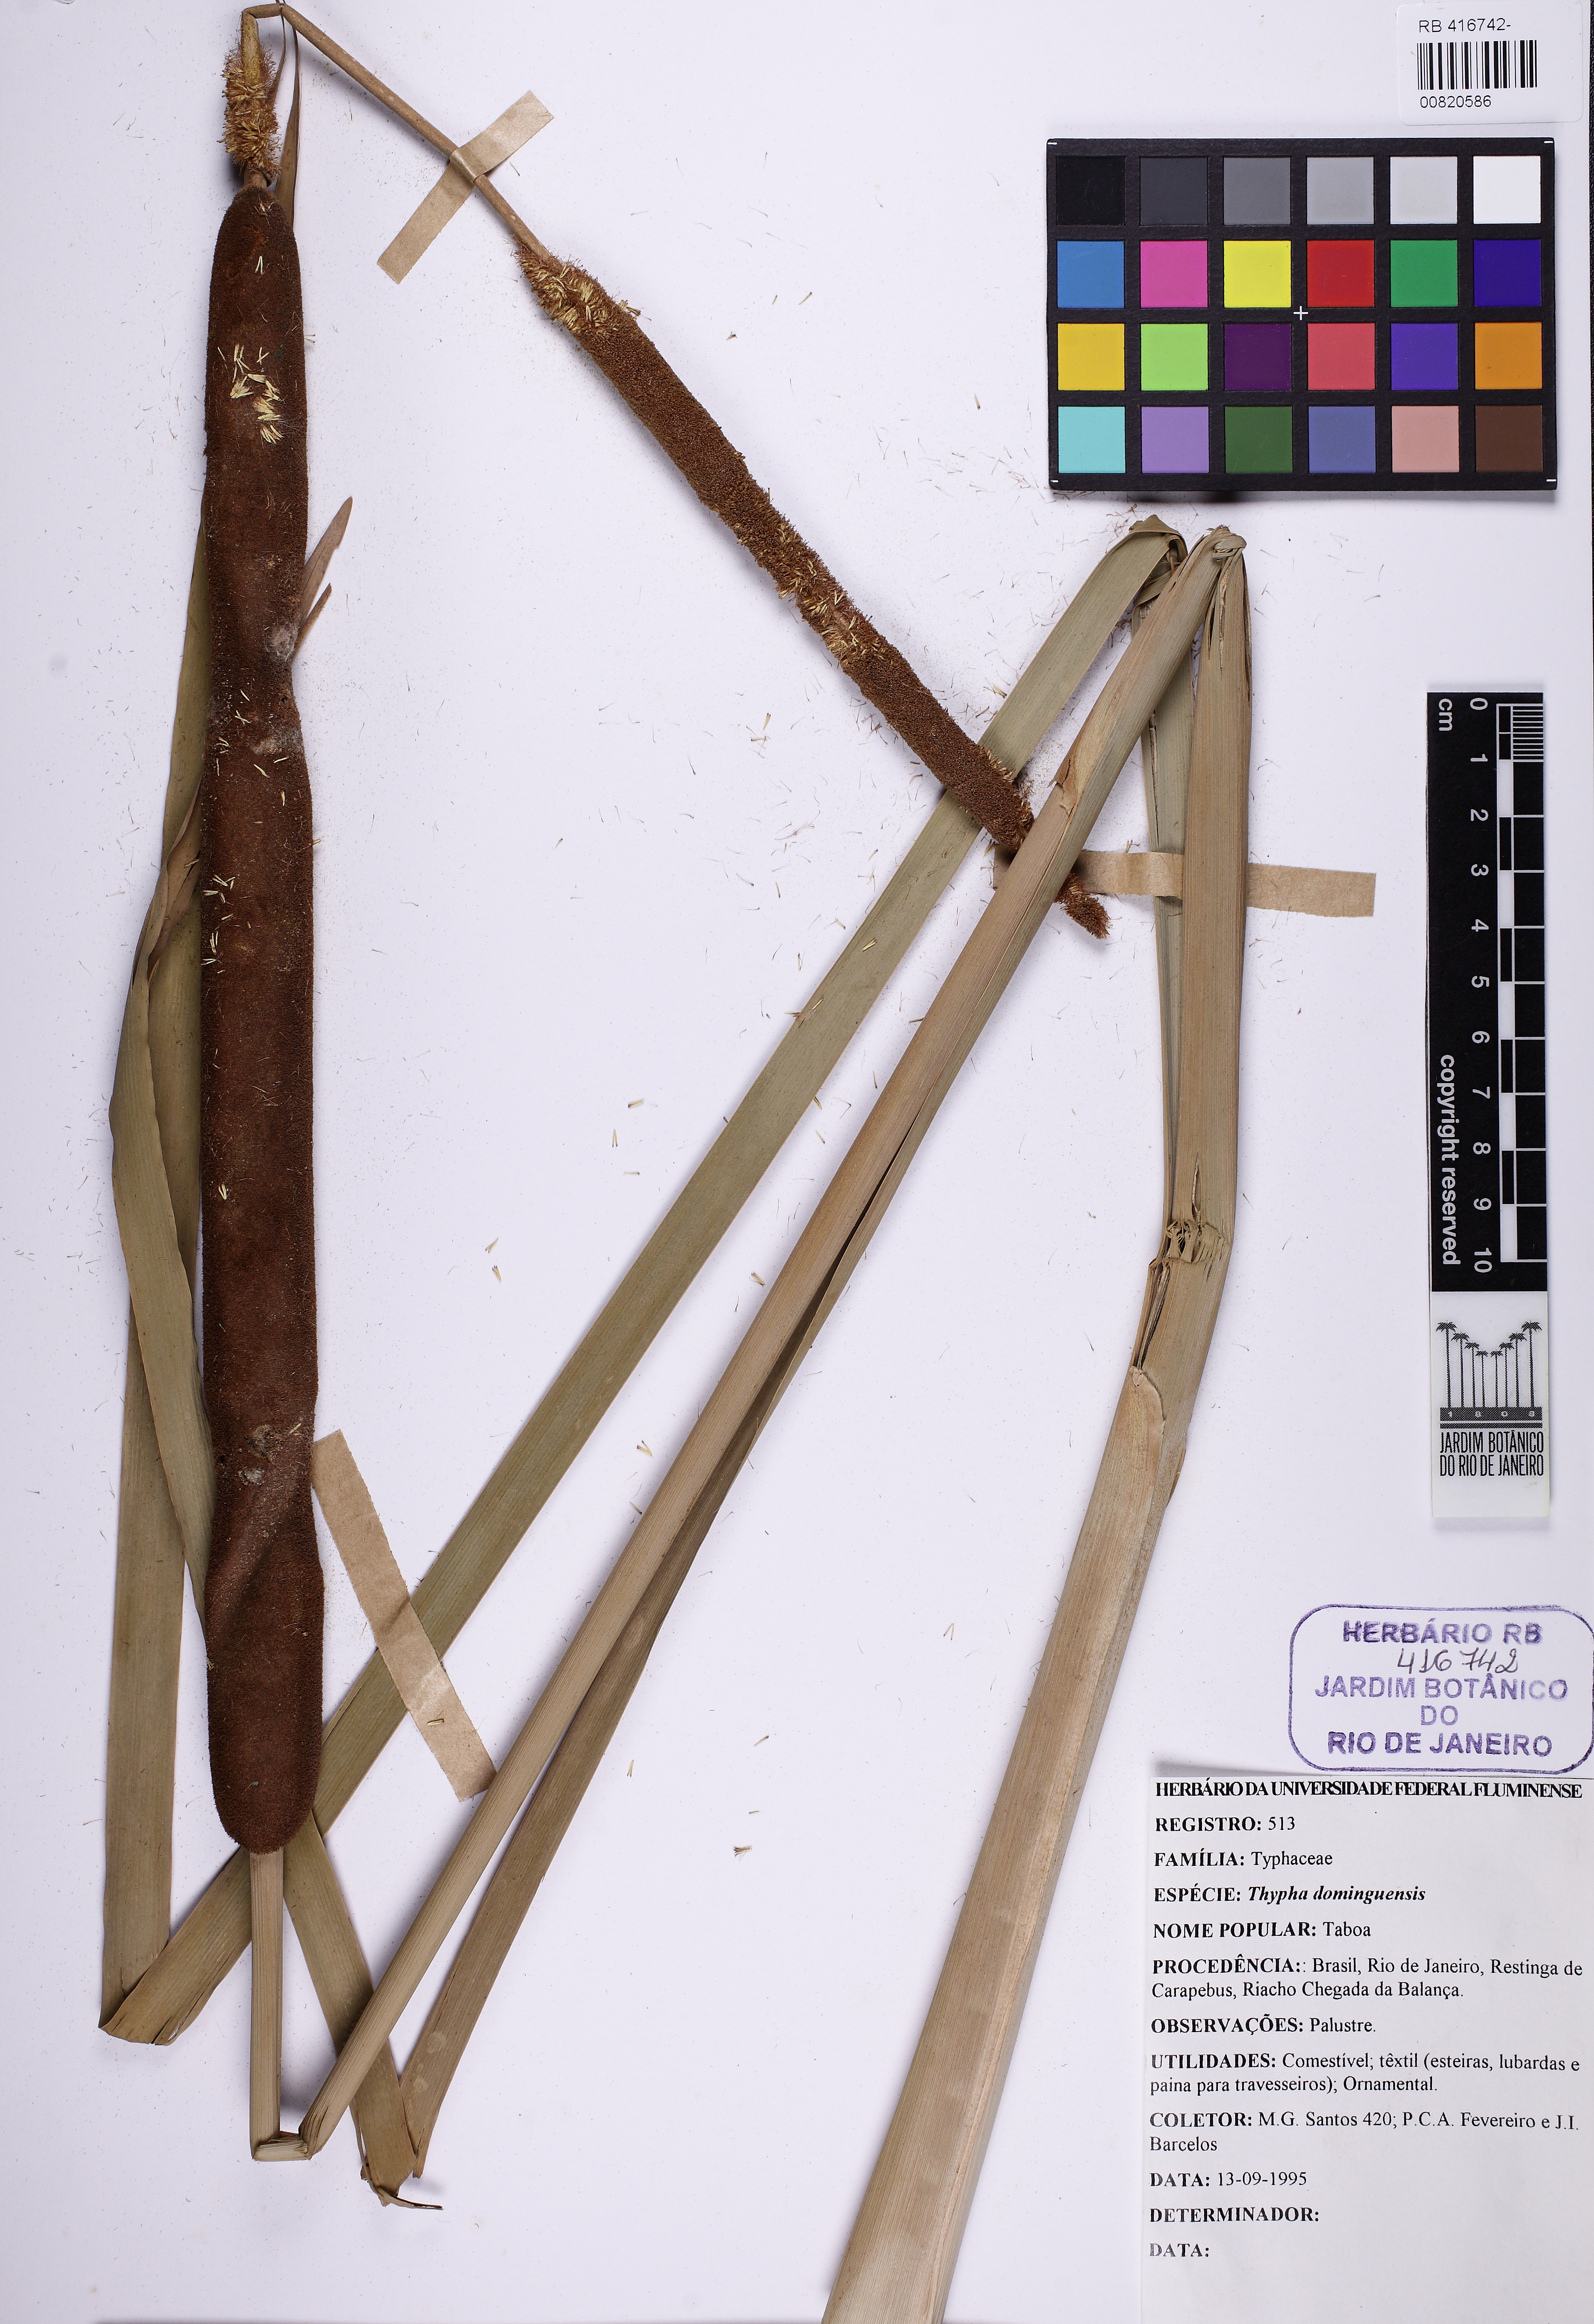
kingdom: Plantae
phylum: Tracheophyta
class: Liliopsida
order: Poales
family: Typhaceae
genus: Typha
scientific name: Typha domingensis
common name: Southern cattail
